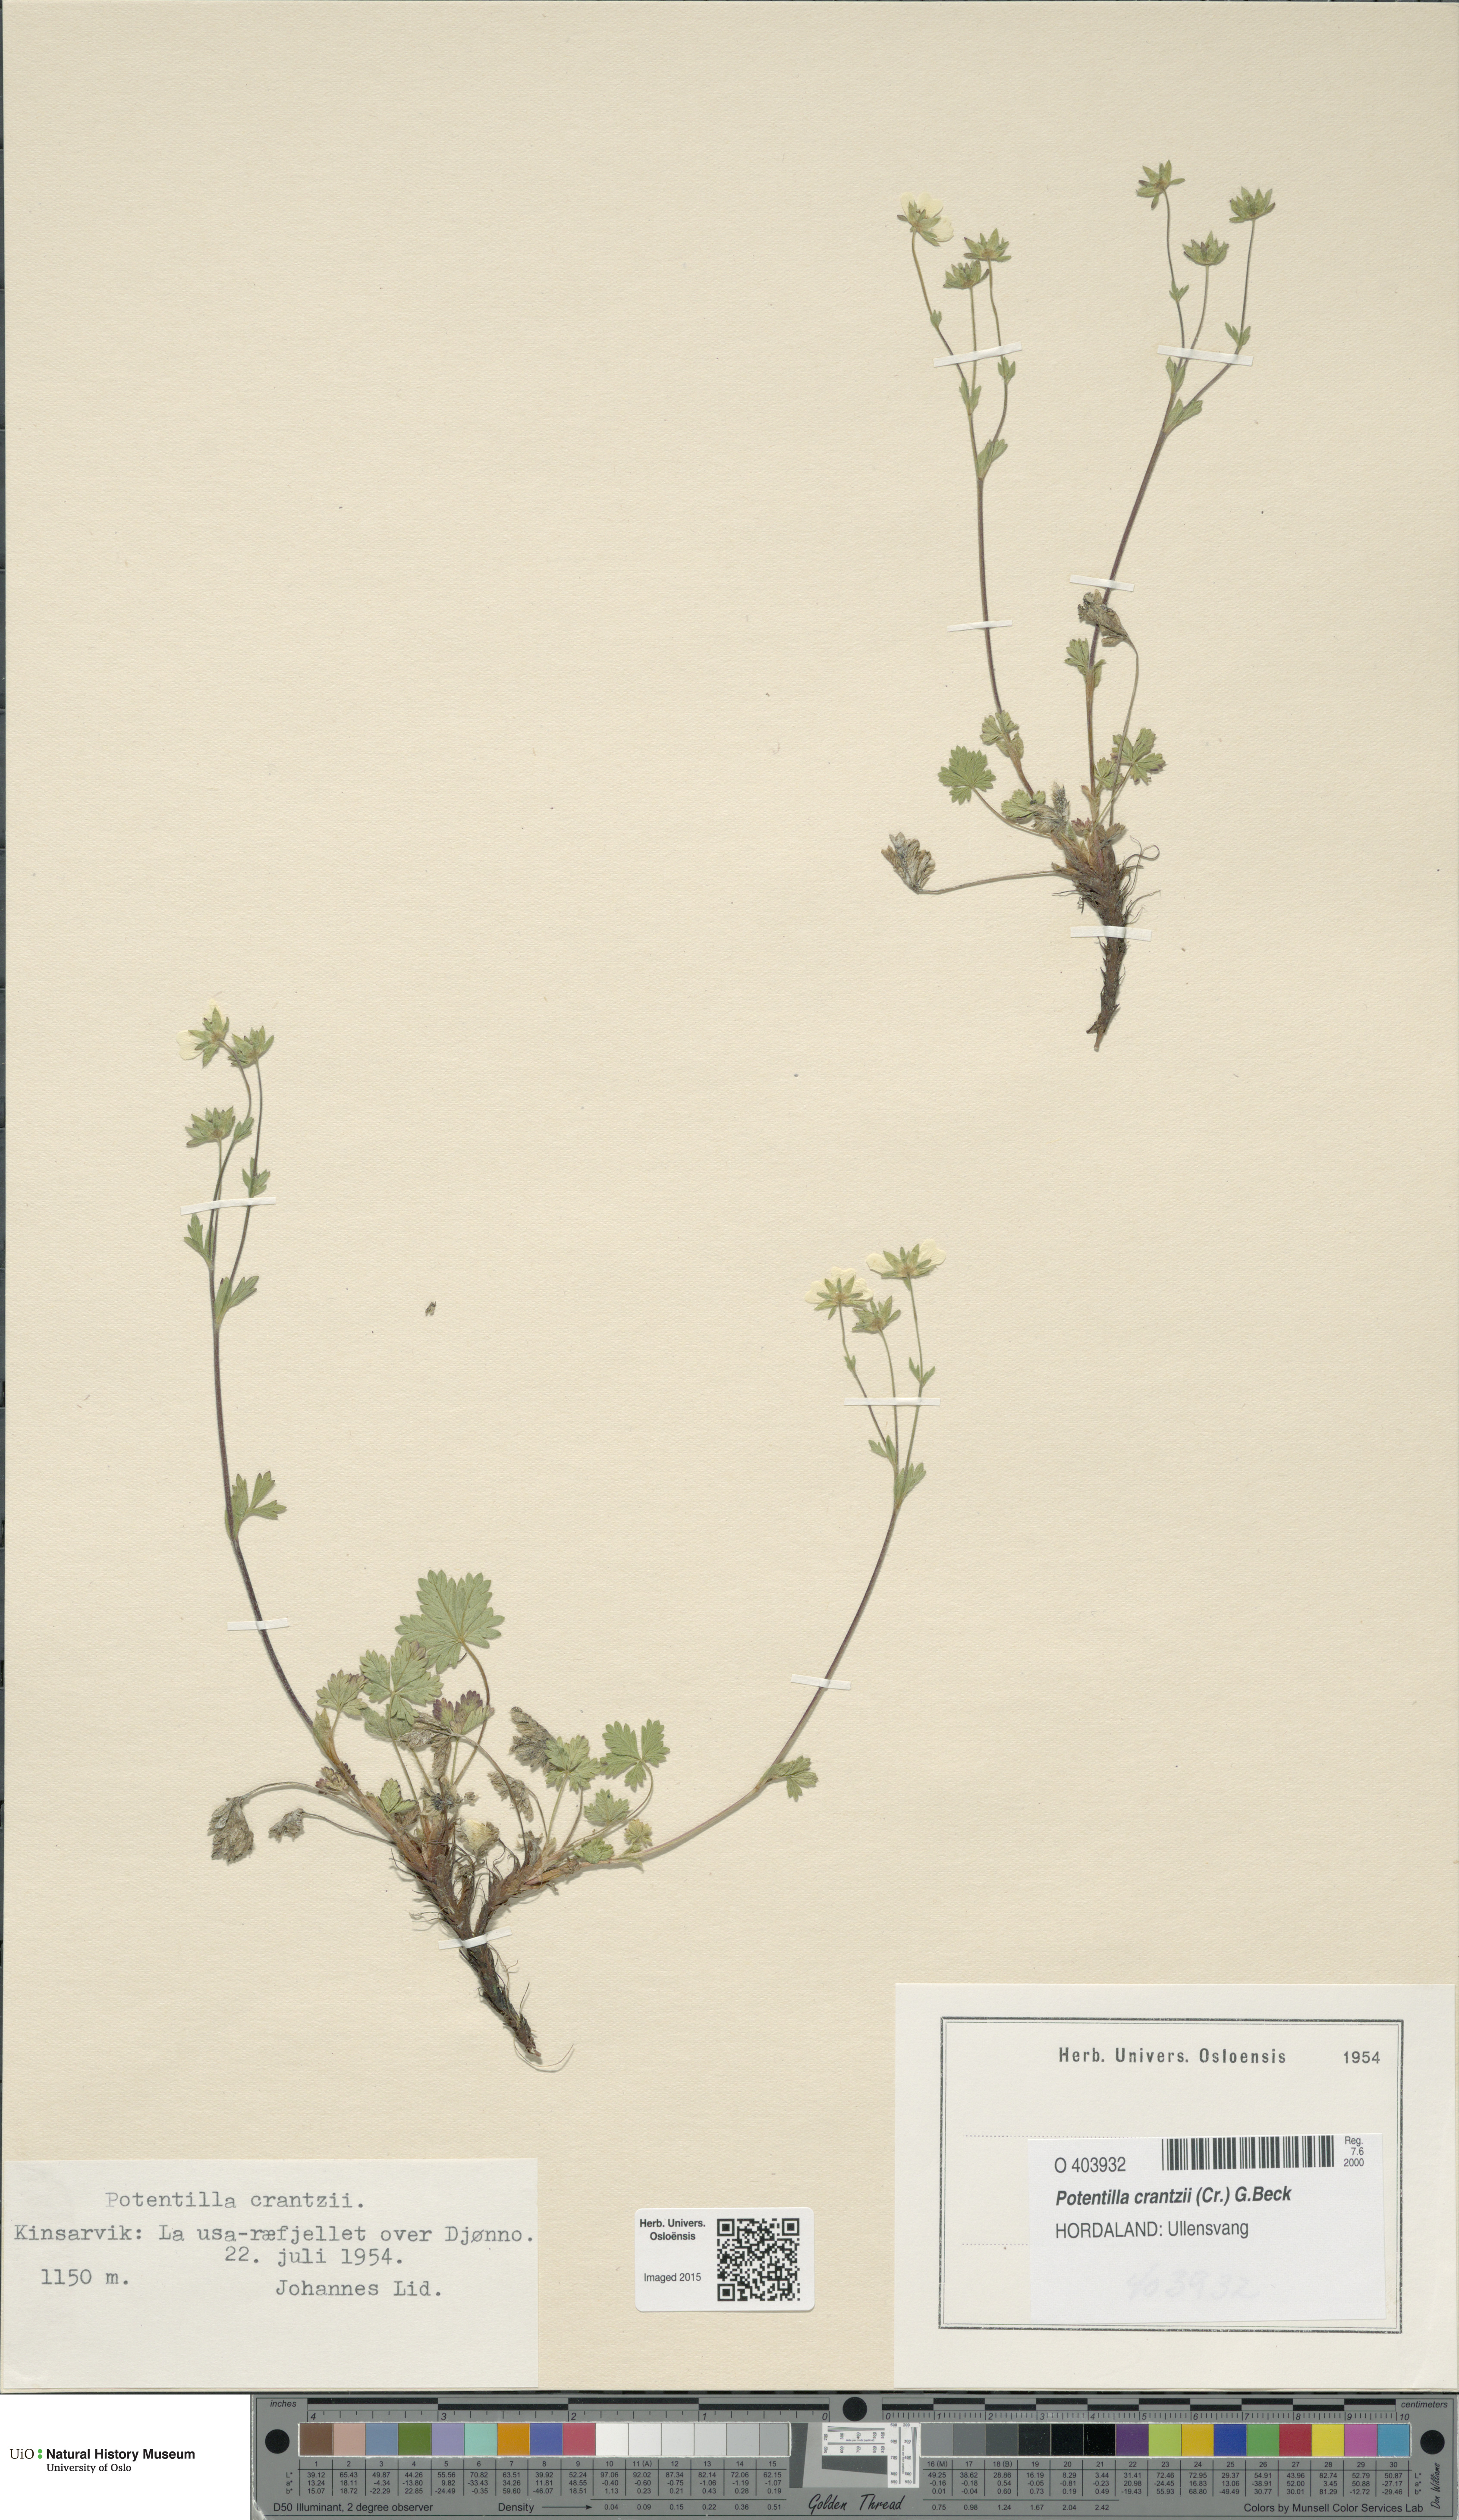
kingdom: Plantae
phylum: Tracheophyta
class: Magnoliopsida
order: Rosales
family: Rosaceae
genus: Potentilla
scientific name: Potentilla crantzii
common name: Alpine cinquefoil
